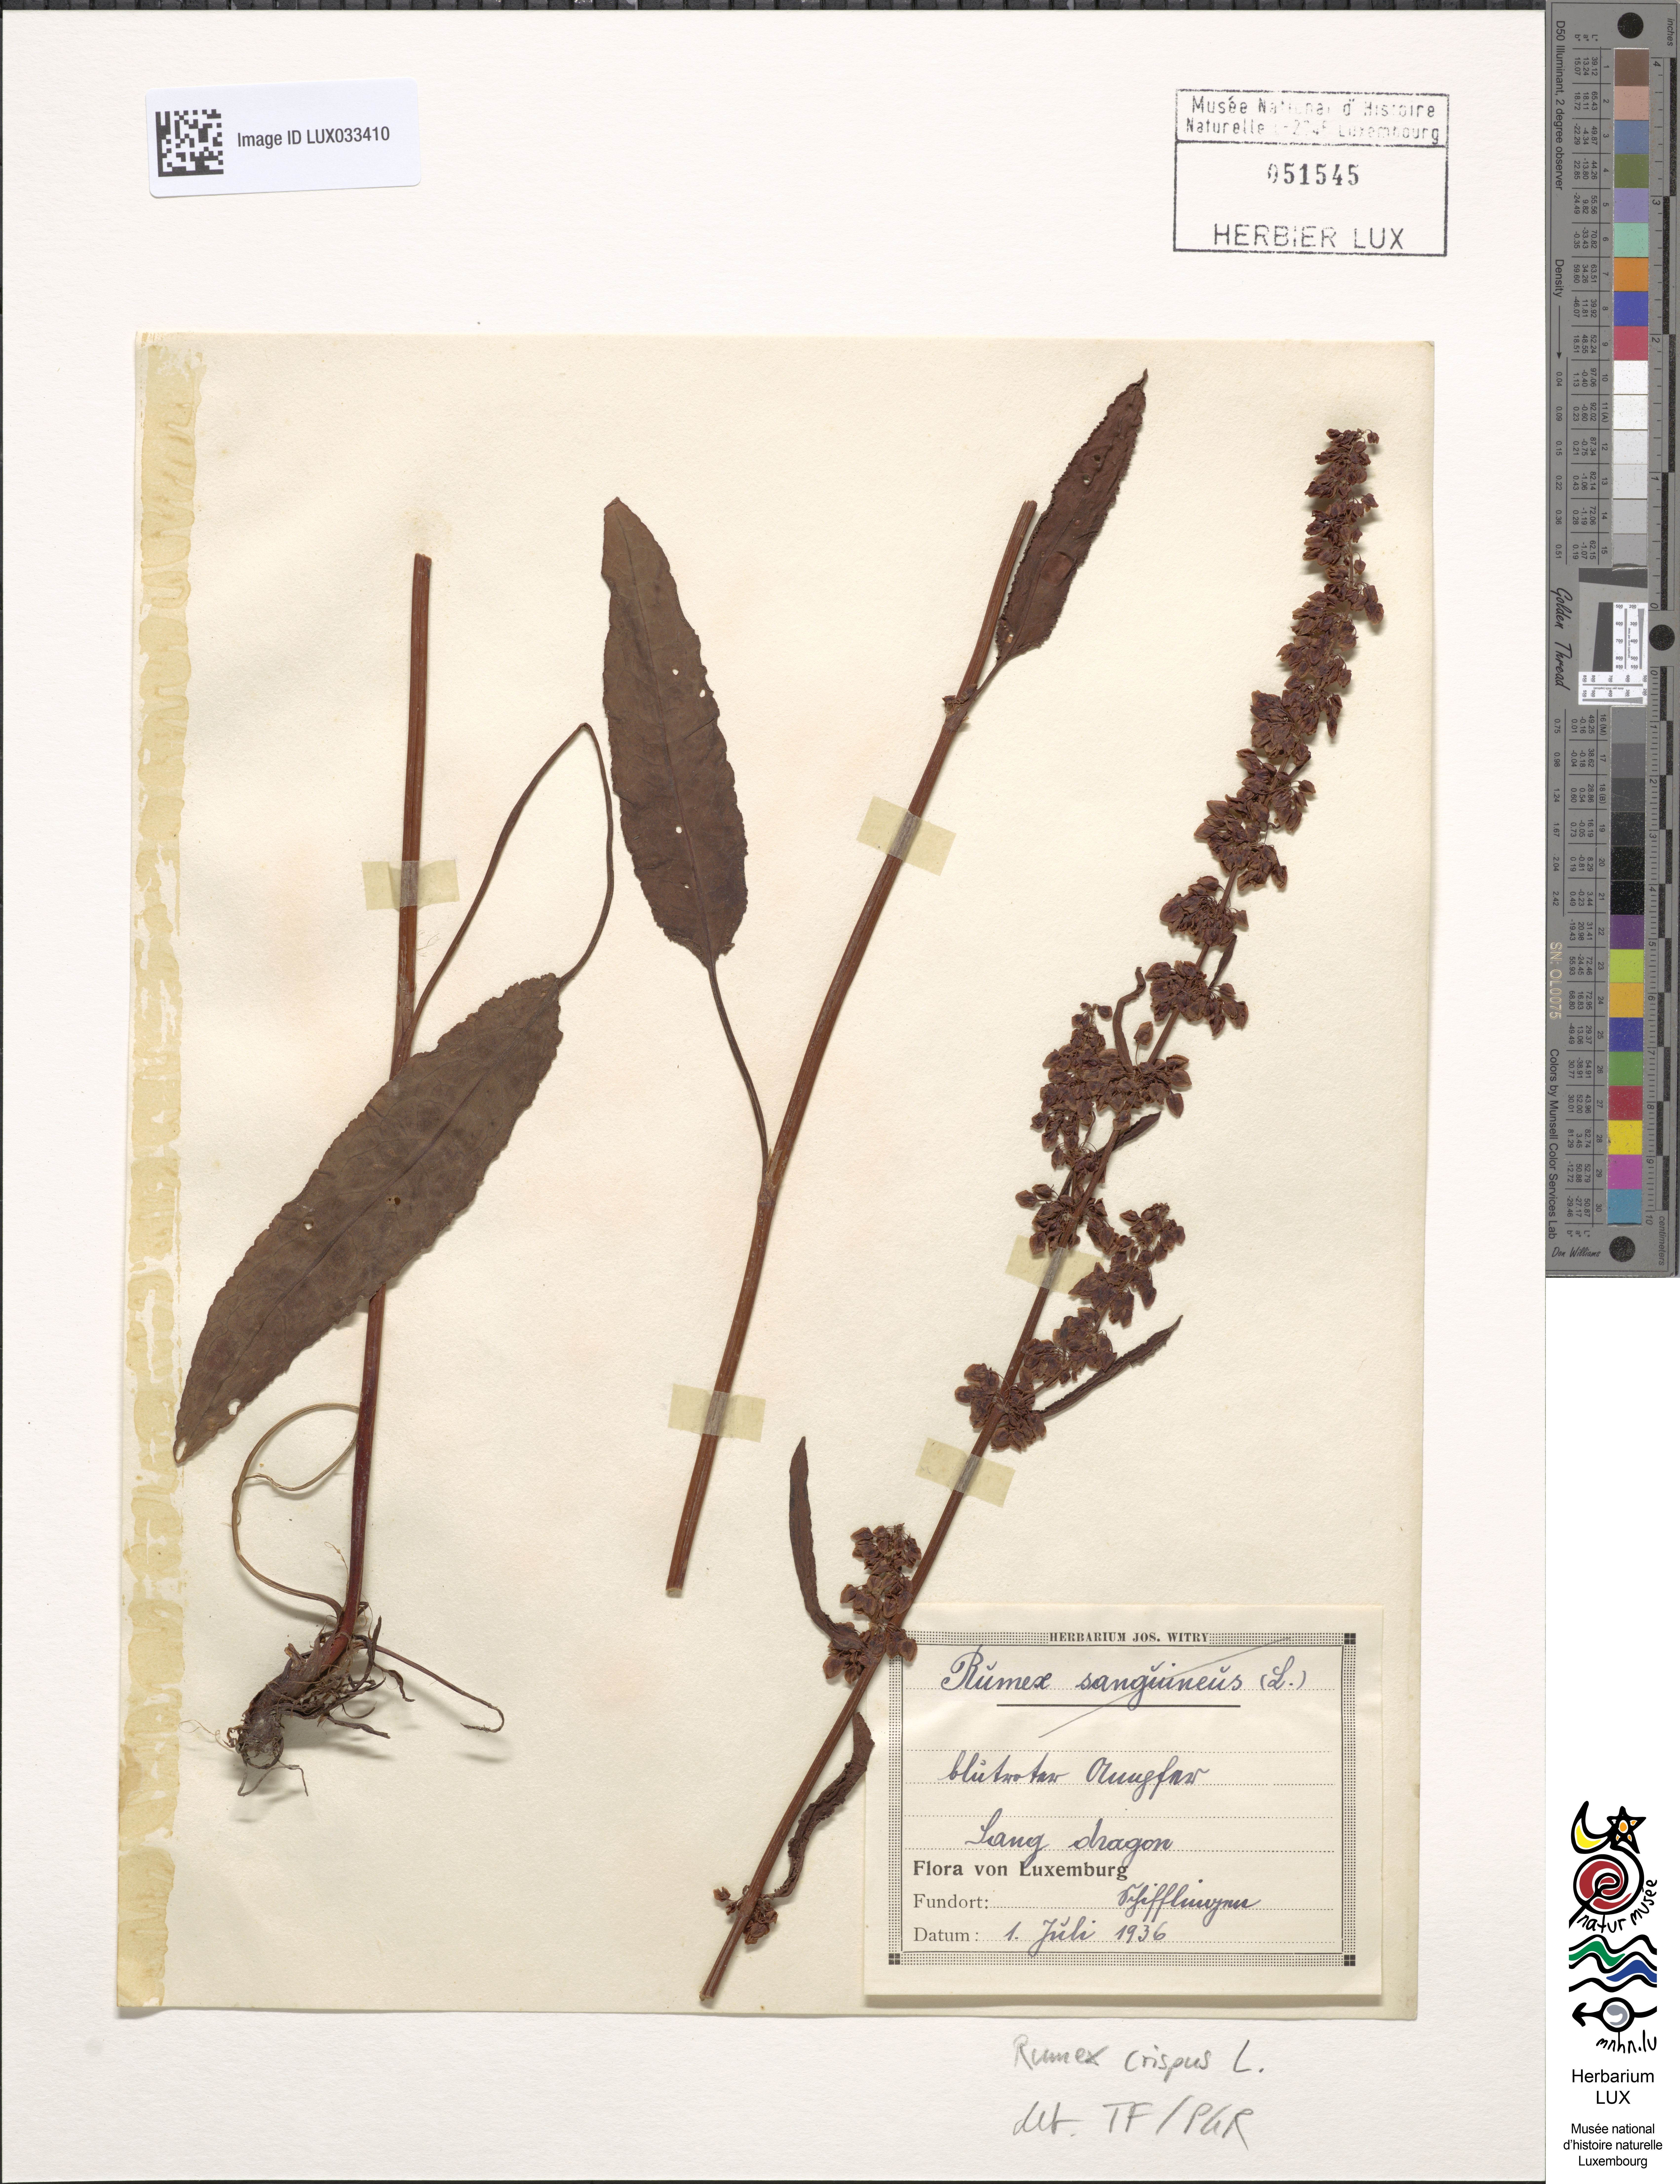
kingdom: Plantae
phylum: Tracheophyta
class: Magnoliopsida
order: Caryophyllales
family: Polygonaceae
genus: Rumex
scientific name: Rumex crispus
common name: Curled dock
